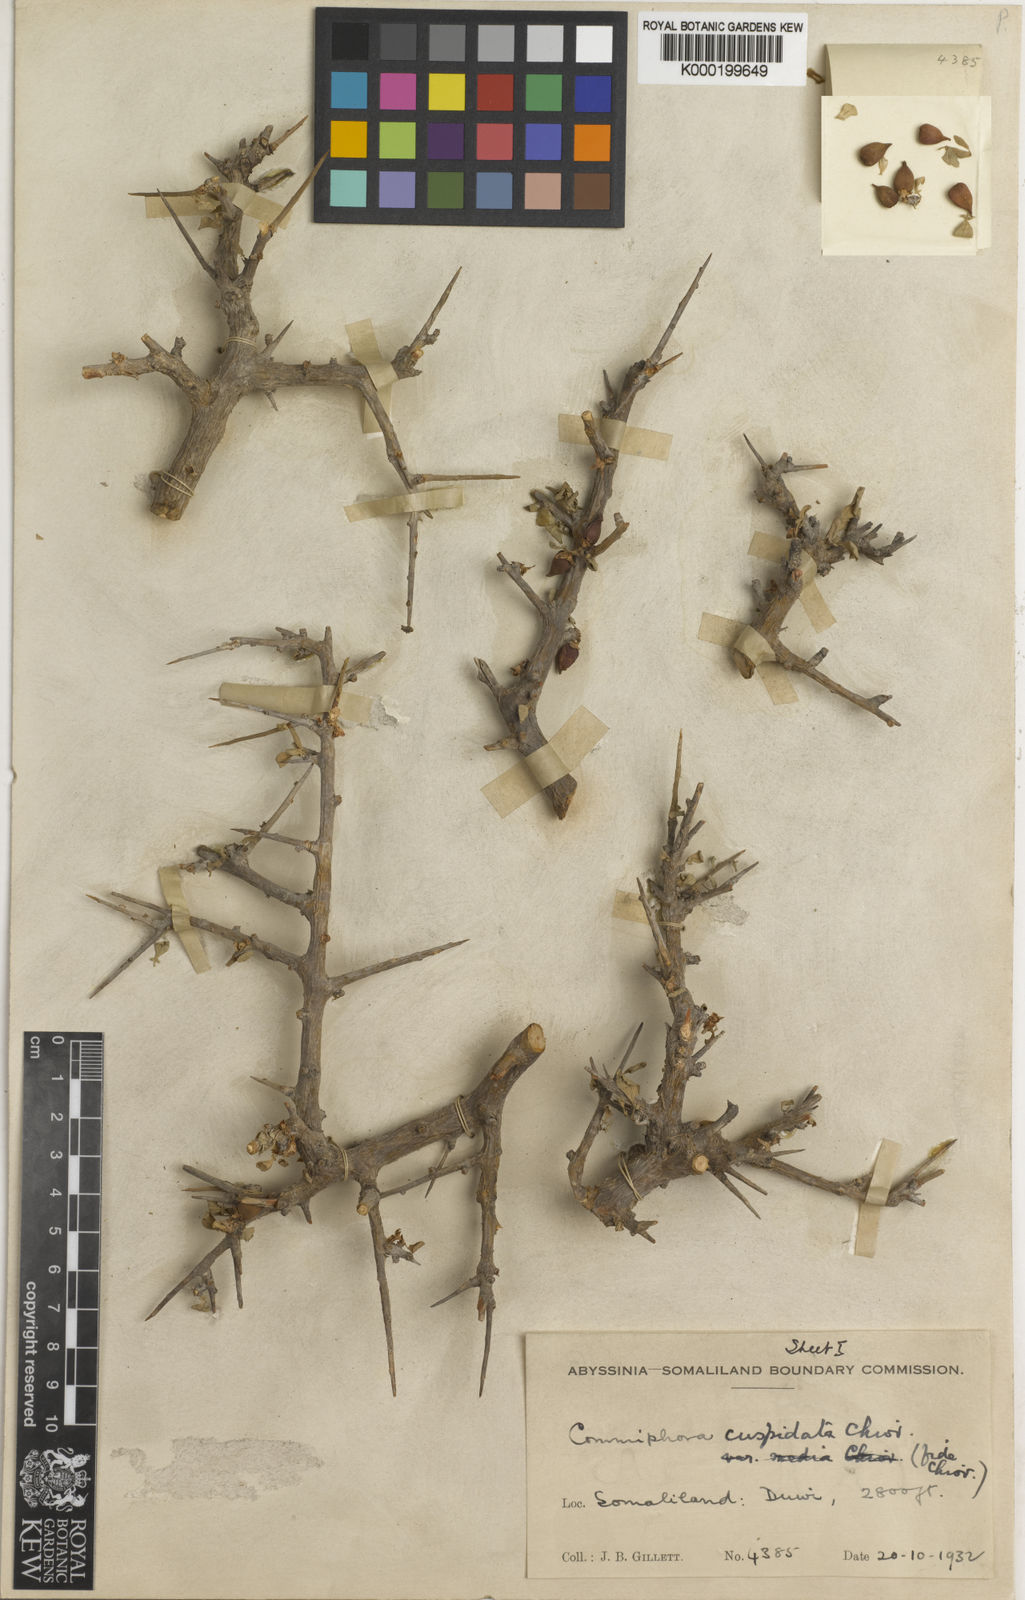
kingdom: Plantae
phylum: Tracheophyta
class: Magnoliopsida
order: Sapindales
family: Burseraceae
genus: Commiphora
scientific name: Commiphora myrrha
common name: African myrrh
